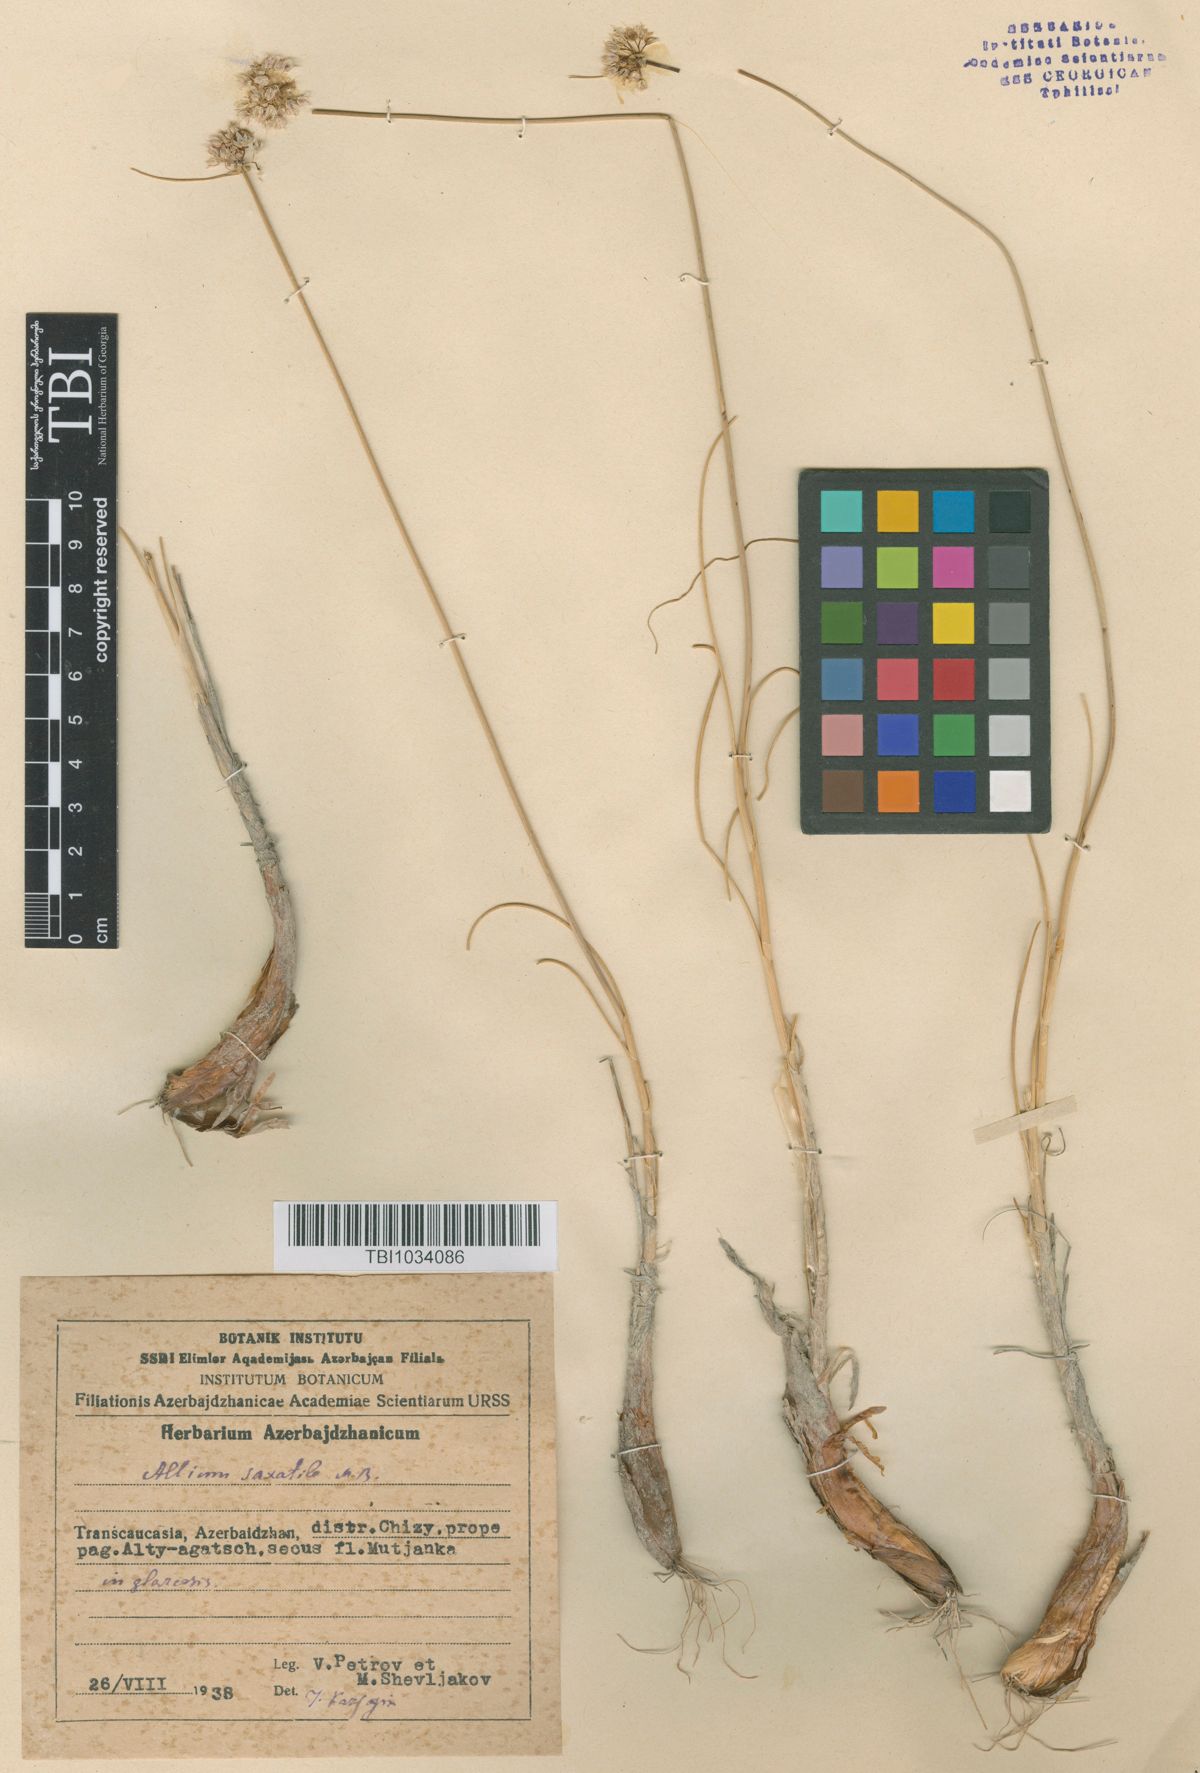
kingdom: Plantae
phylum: Tracheophyta
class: Liliopsida
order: Asparagales
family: Amaryllidaceae
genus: Allium
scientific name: Allium saxatile
